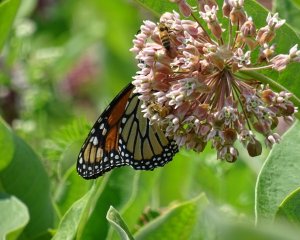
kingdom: Animalia
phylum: Arthropoda
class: Insecta
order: Lepidoptera
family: Nymphalidae
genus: Danaus
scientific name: Danaus plexippus
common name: Monarch
